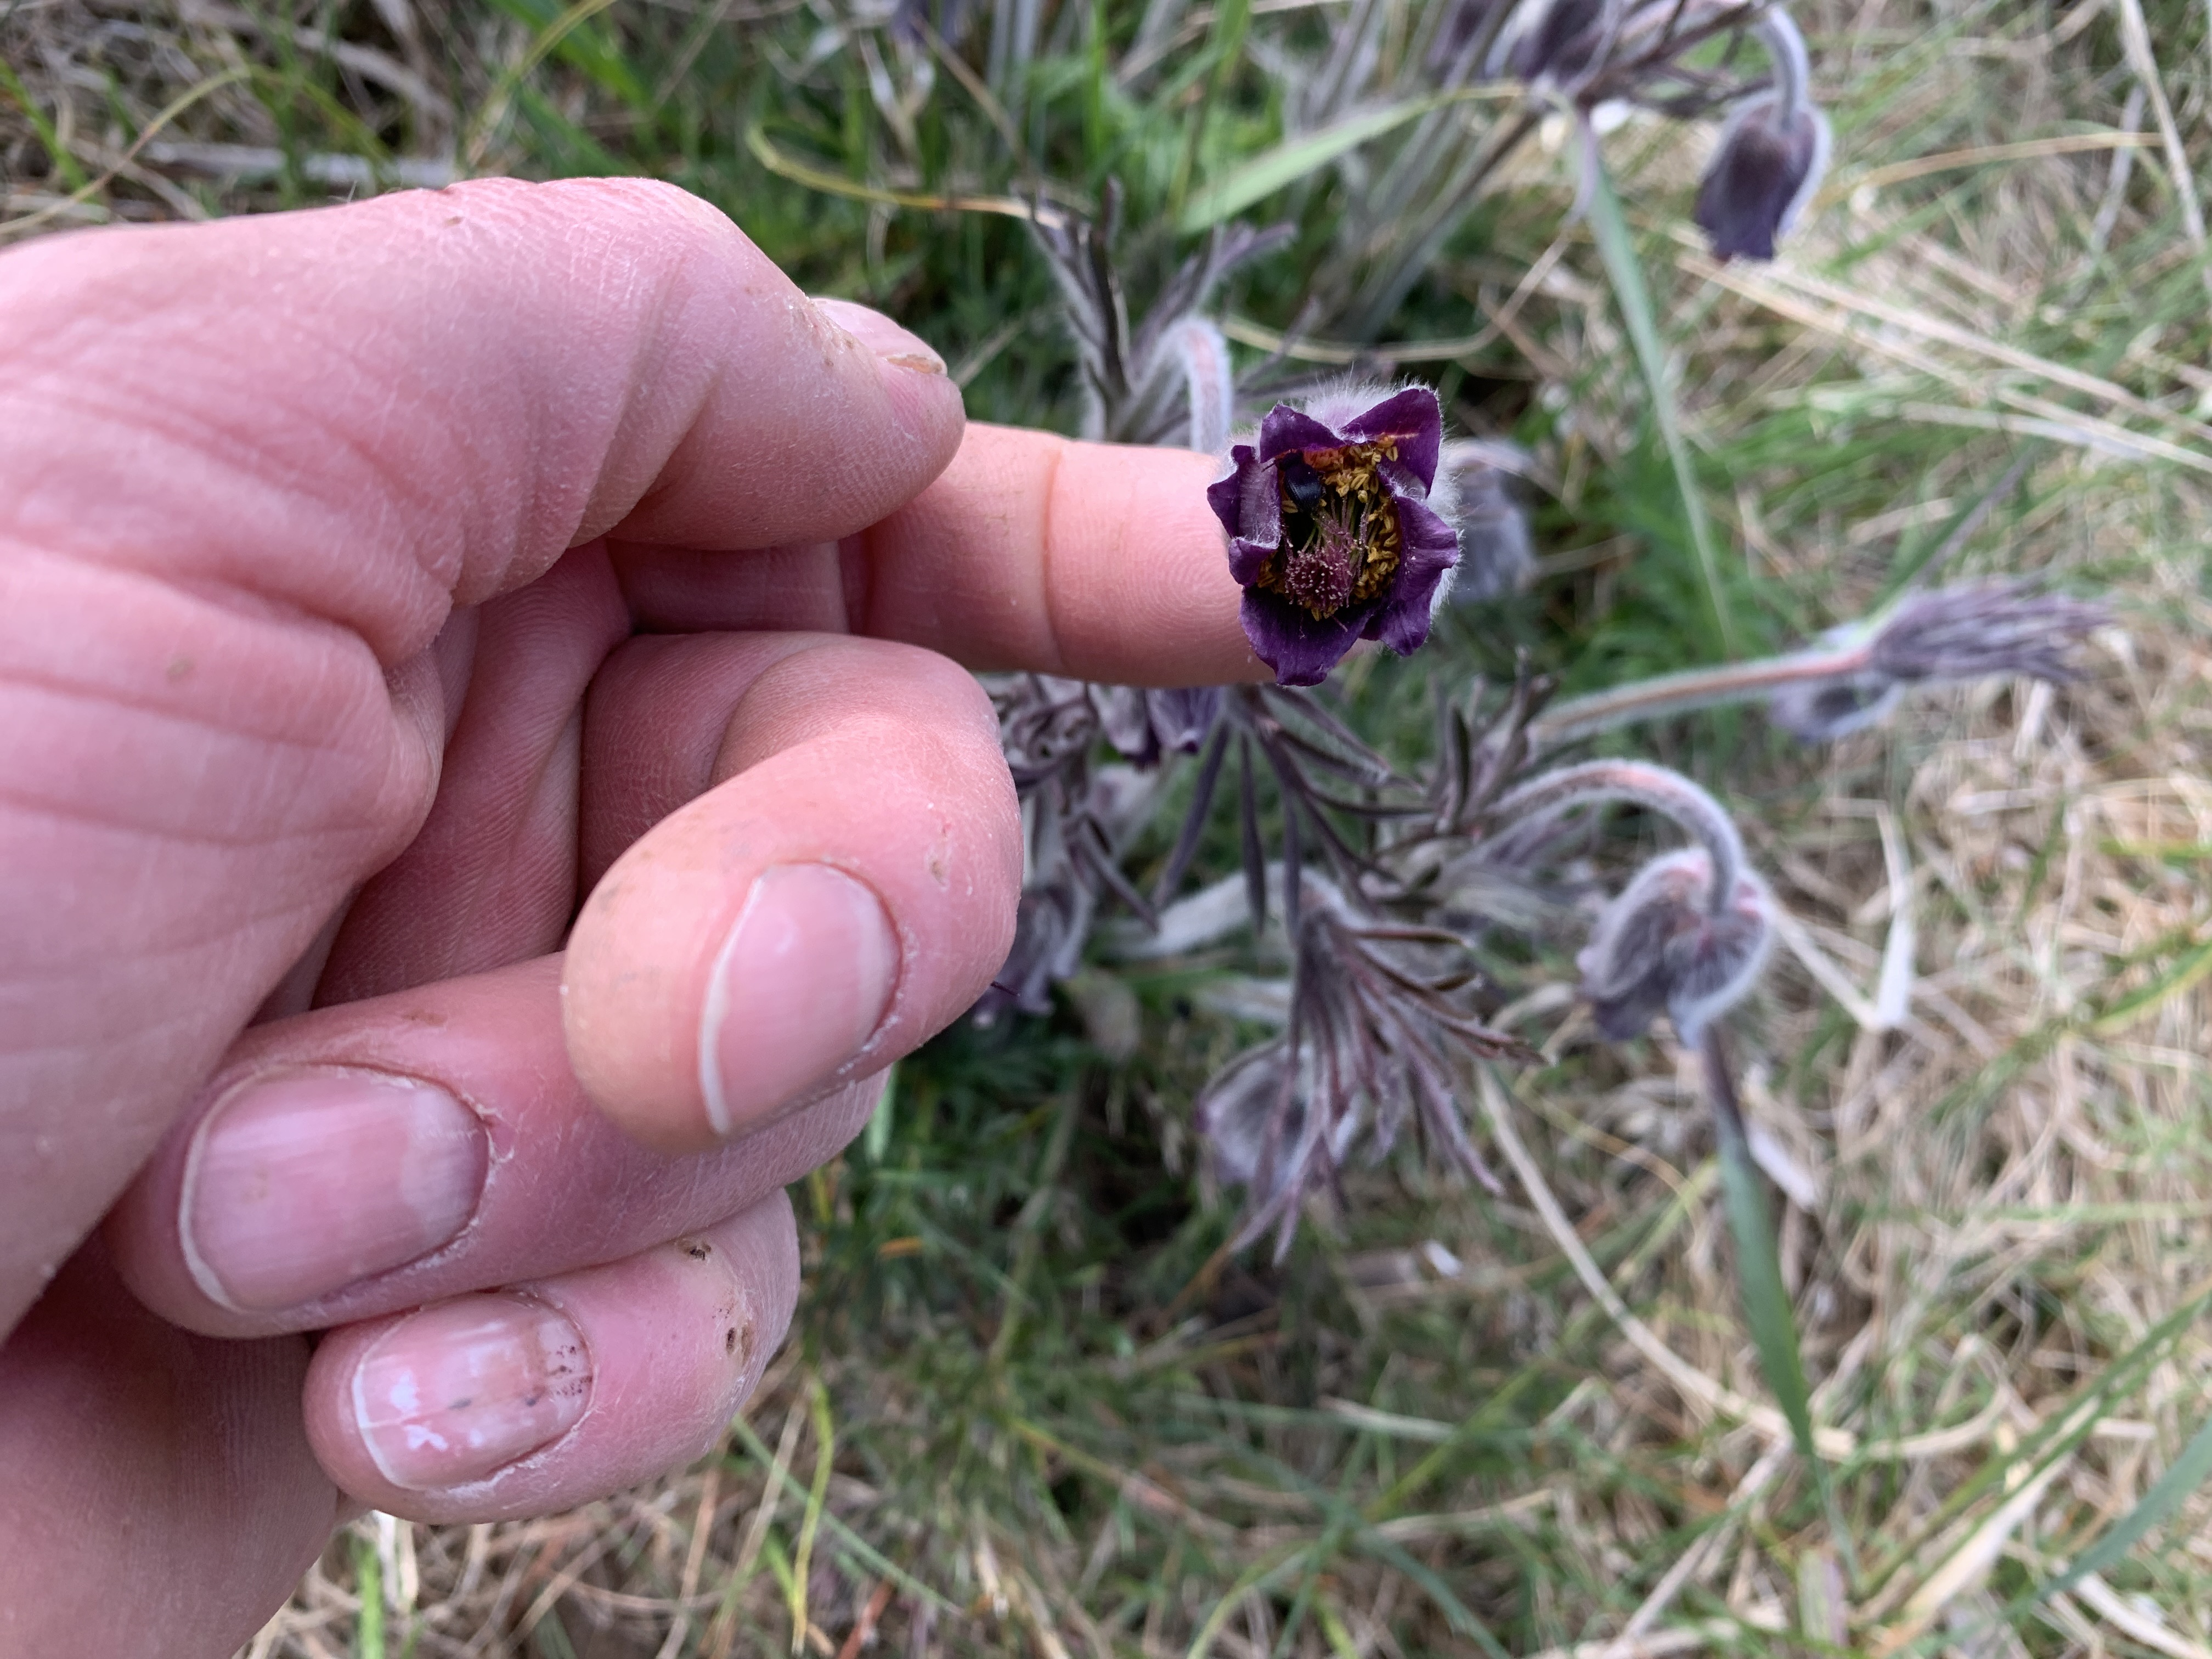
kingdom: Plantae
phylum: Tracheophyta
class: Magnoliopsida
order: Ranunculales
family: Ranunculaceae
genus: Pulsatilla
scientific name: Pulsatilla pratensis
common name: Nikkende kobjælde
